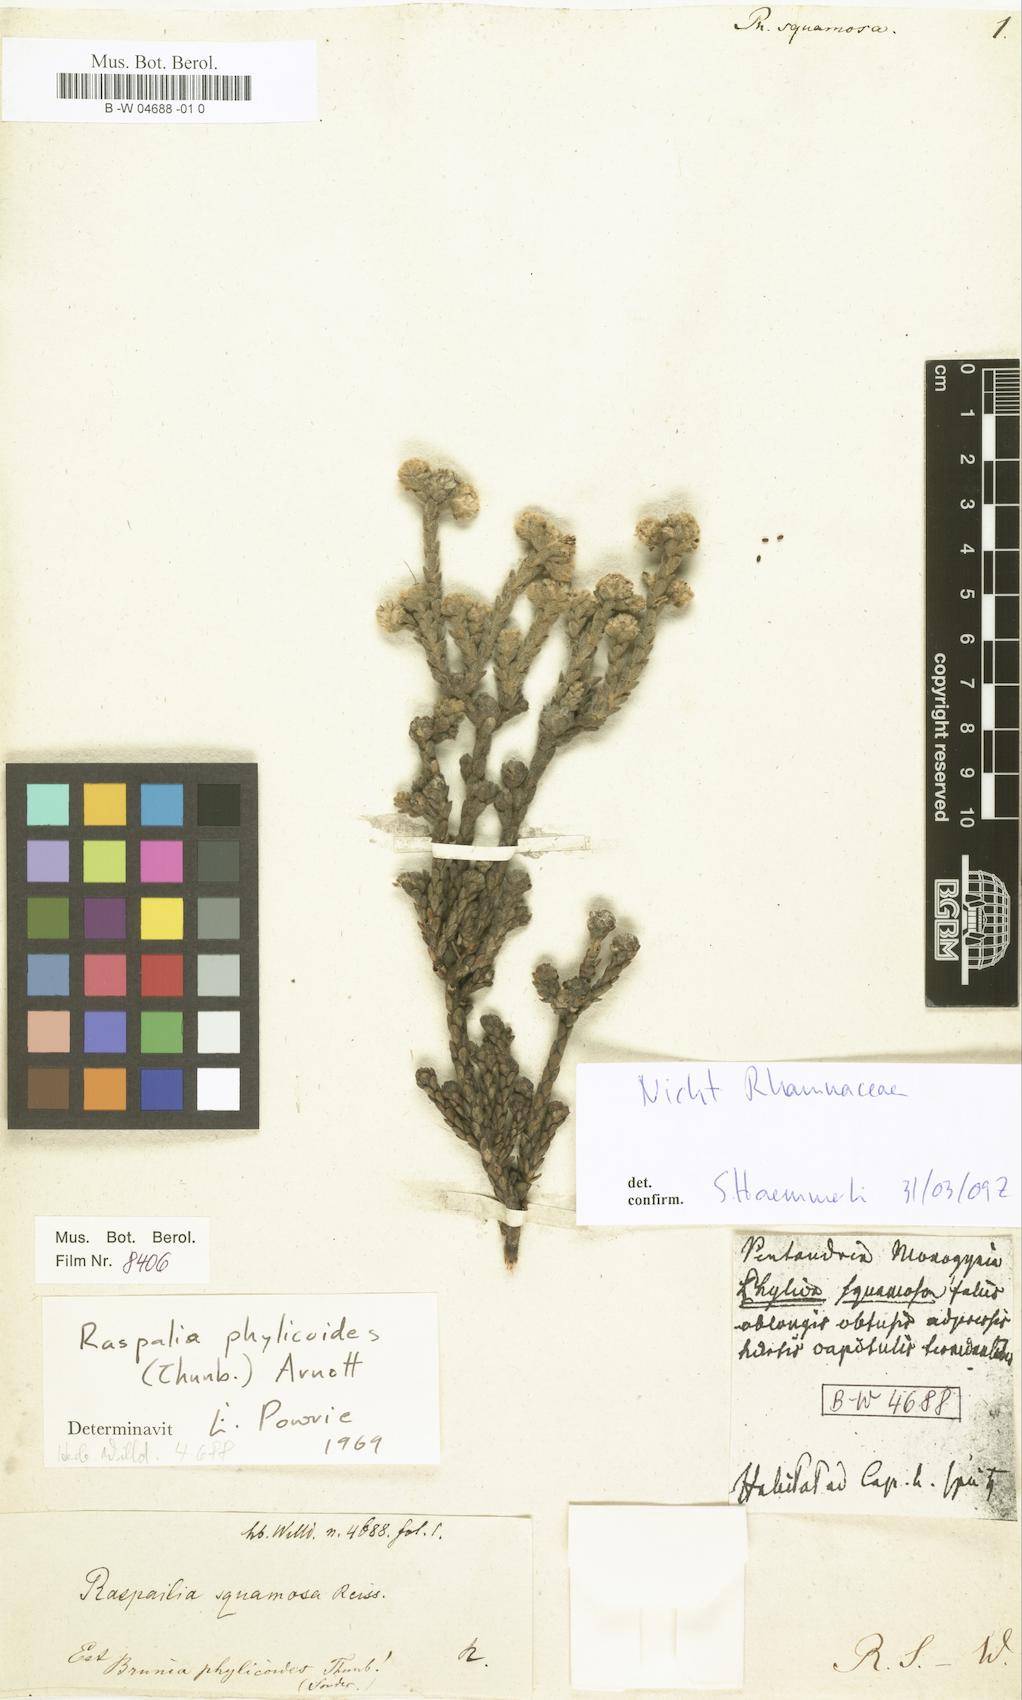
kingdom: Plantae
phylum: Tracheophyta
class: Magnoliopsida
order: Rosales
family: Rhamnaceae
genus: Phylica
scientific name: Phylica
